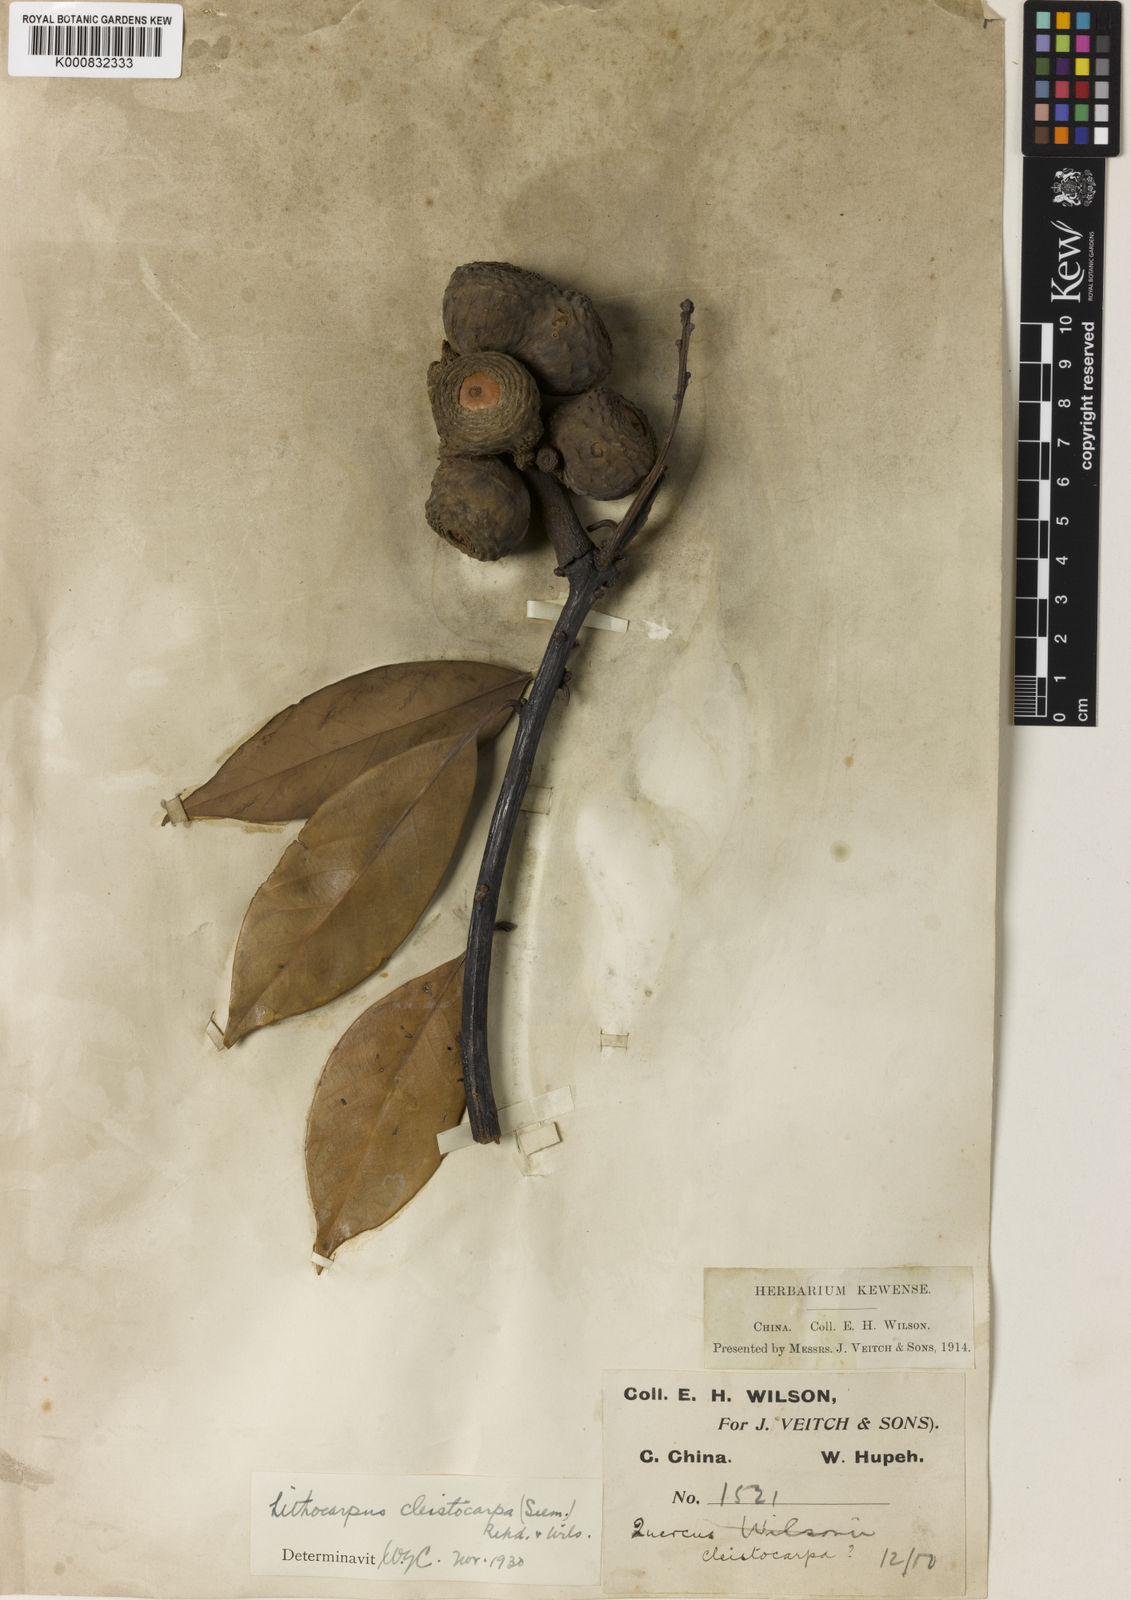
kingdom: Plantae
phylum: Tracheophyta
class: Magnoliopsida
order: Fagales
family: Fagaceae
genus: Lithocarpus
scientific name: Lithocarpus cleistocarpus
